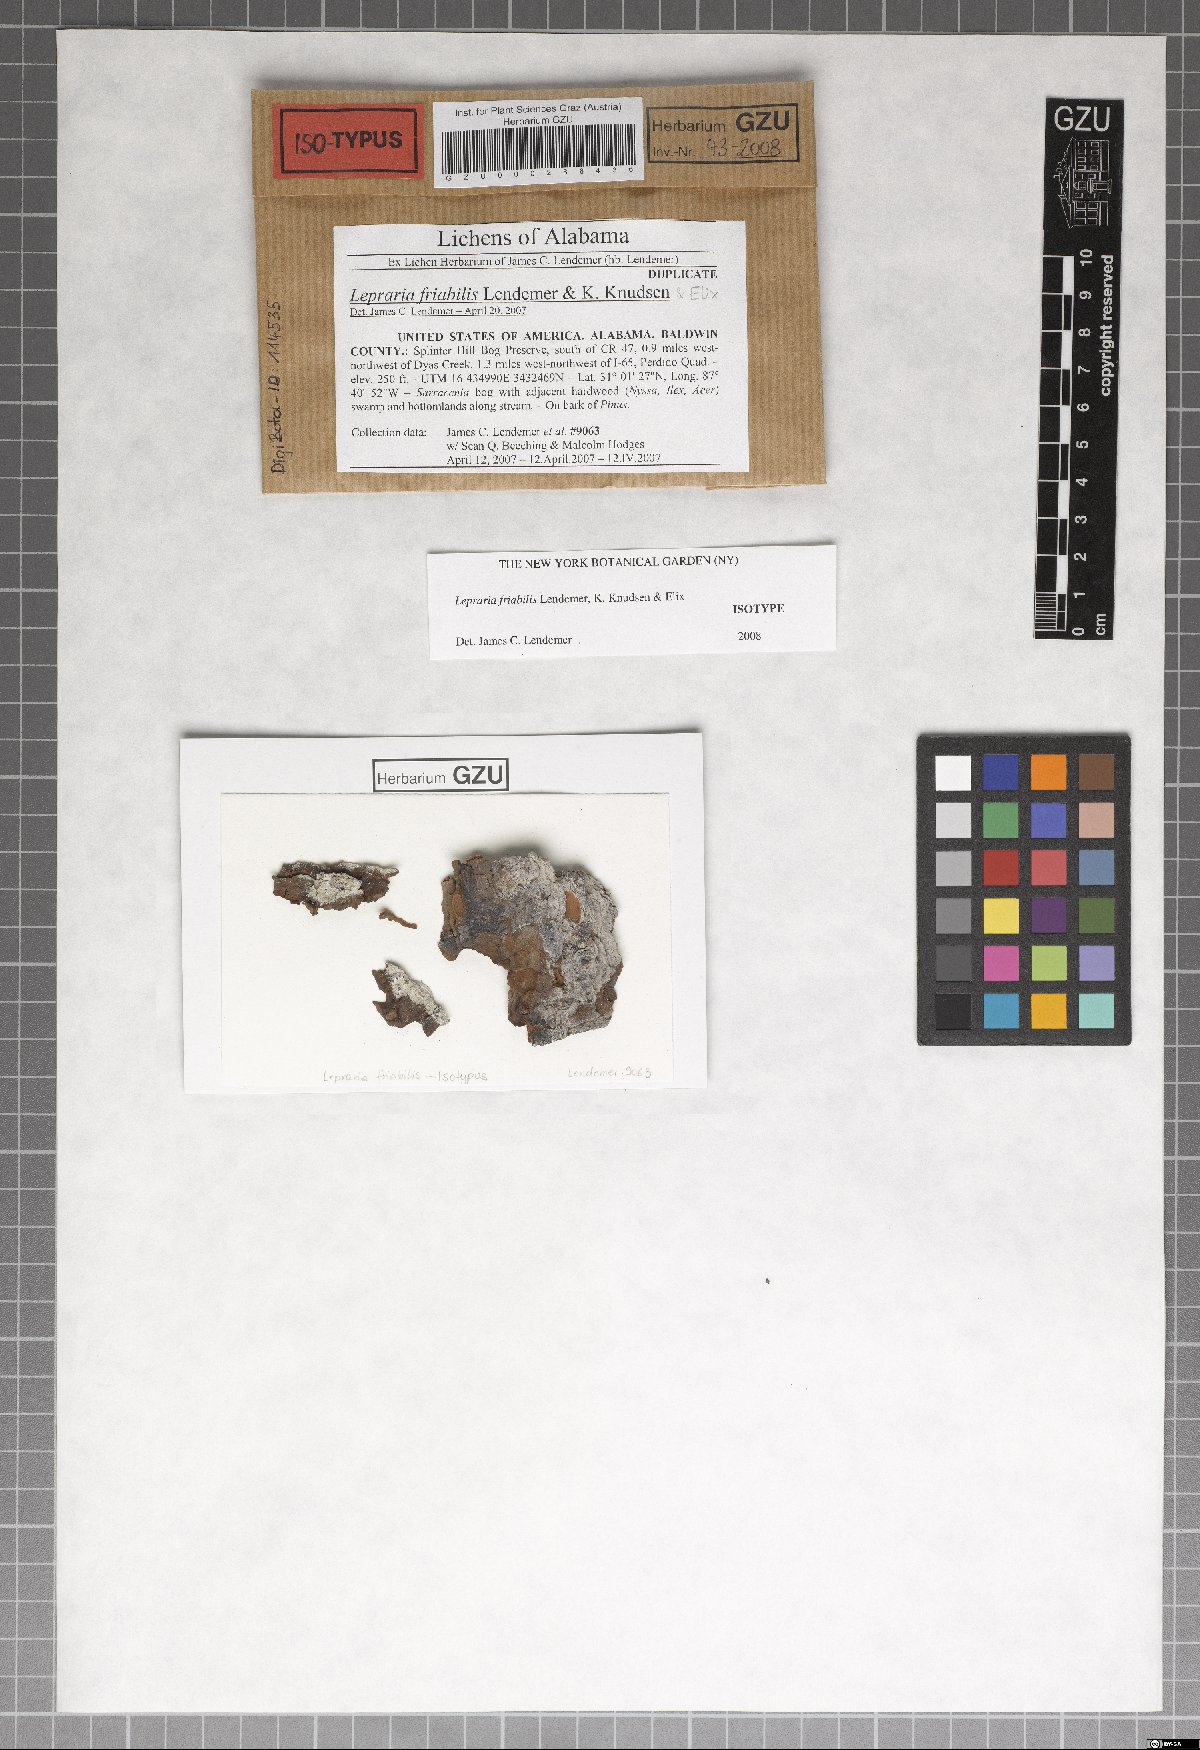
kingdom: Fungi
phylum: Ascomycota
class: Lecanoromycetes
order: Lecanorales
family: Stereocaulaceae
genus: Lepraria
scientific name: Lepraria friabilis
